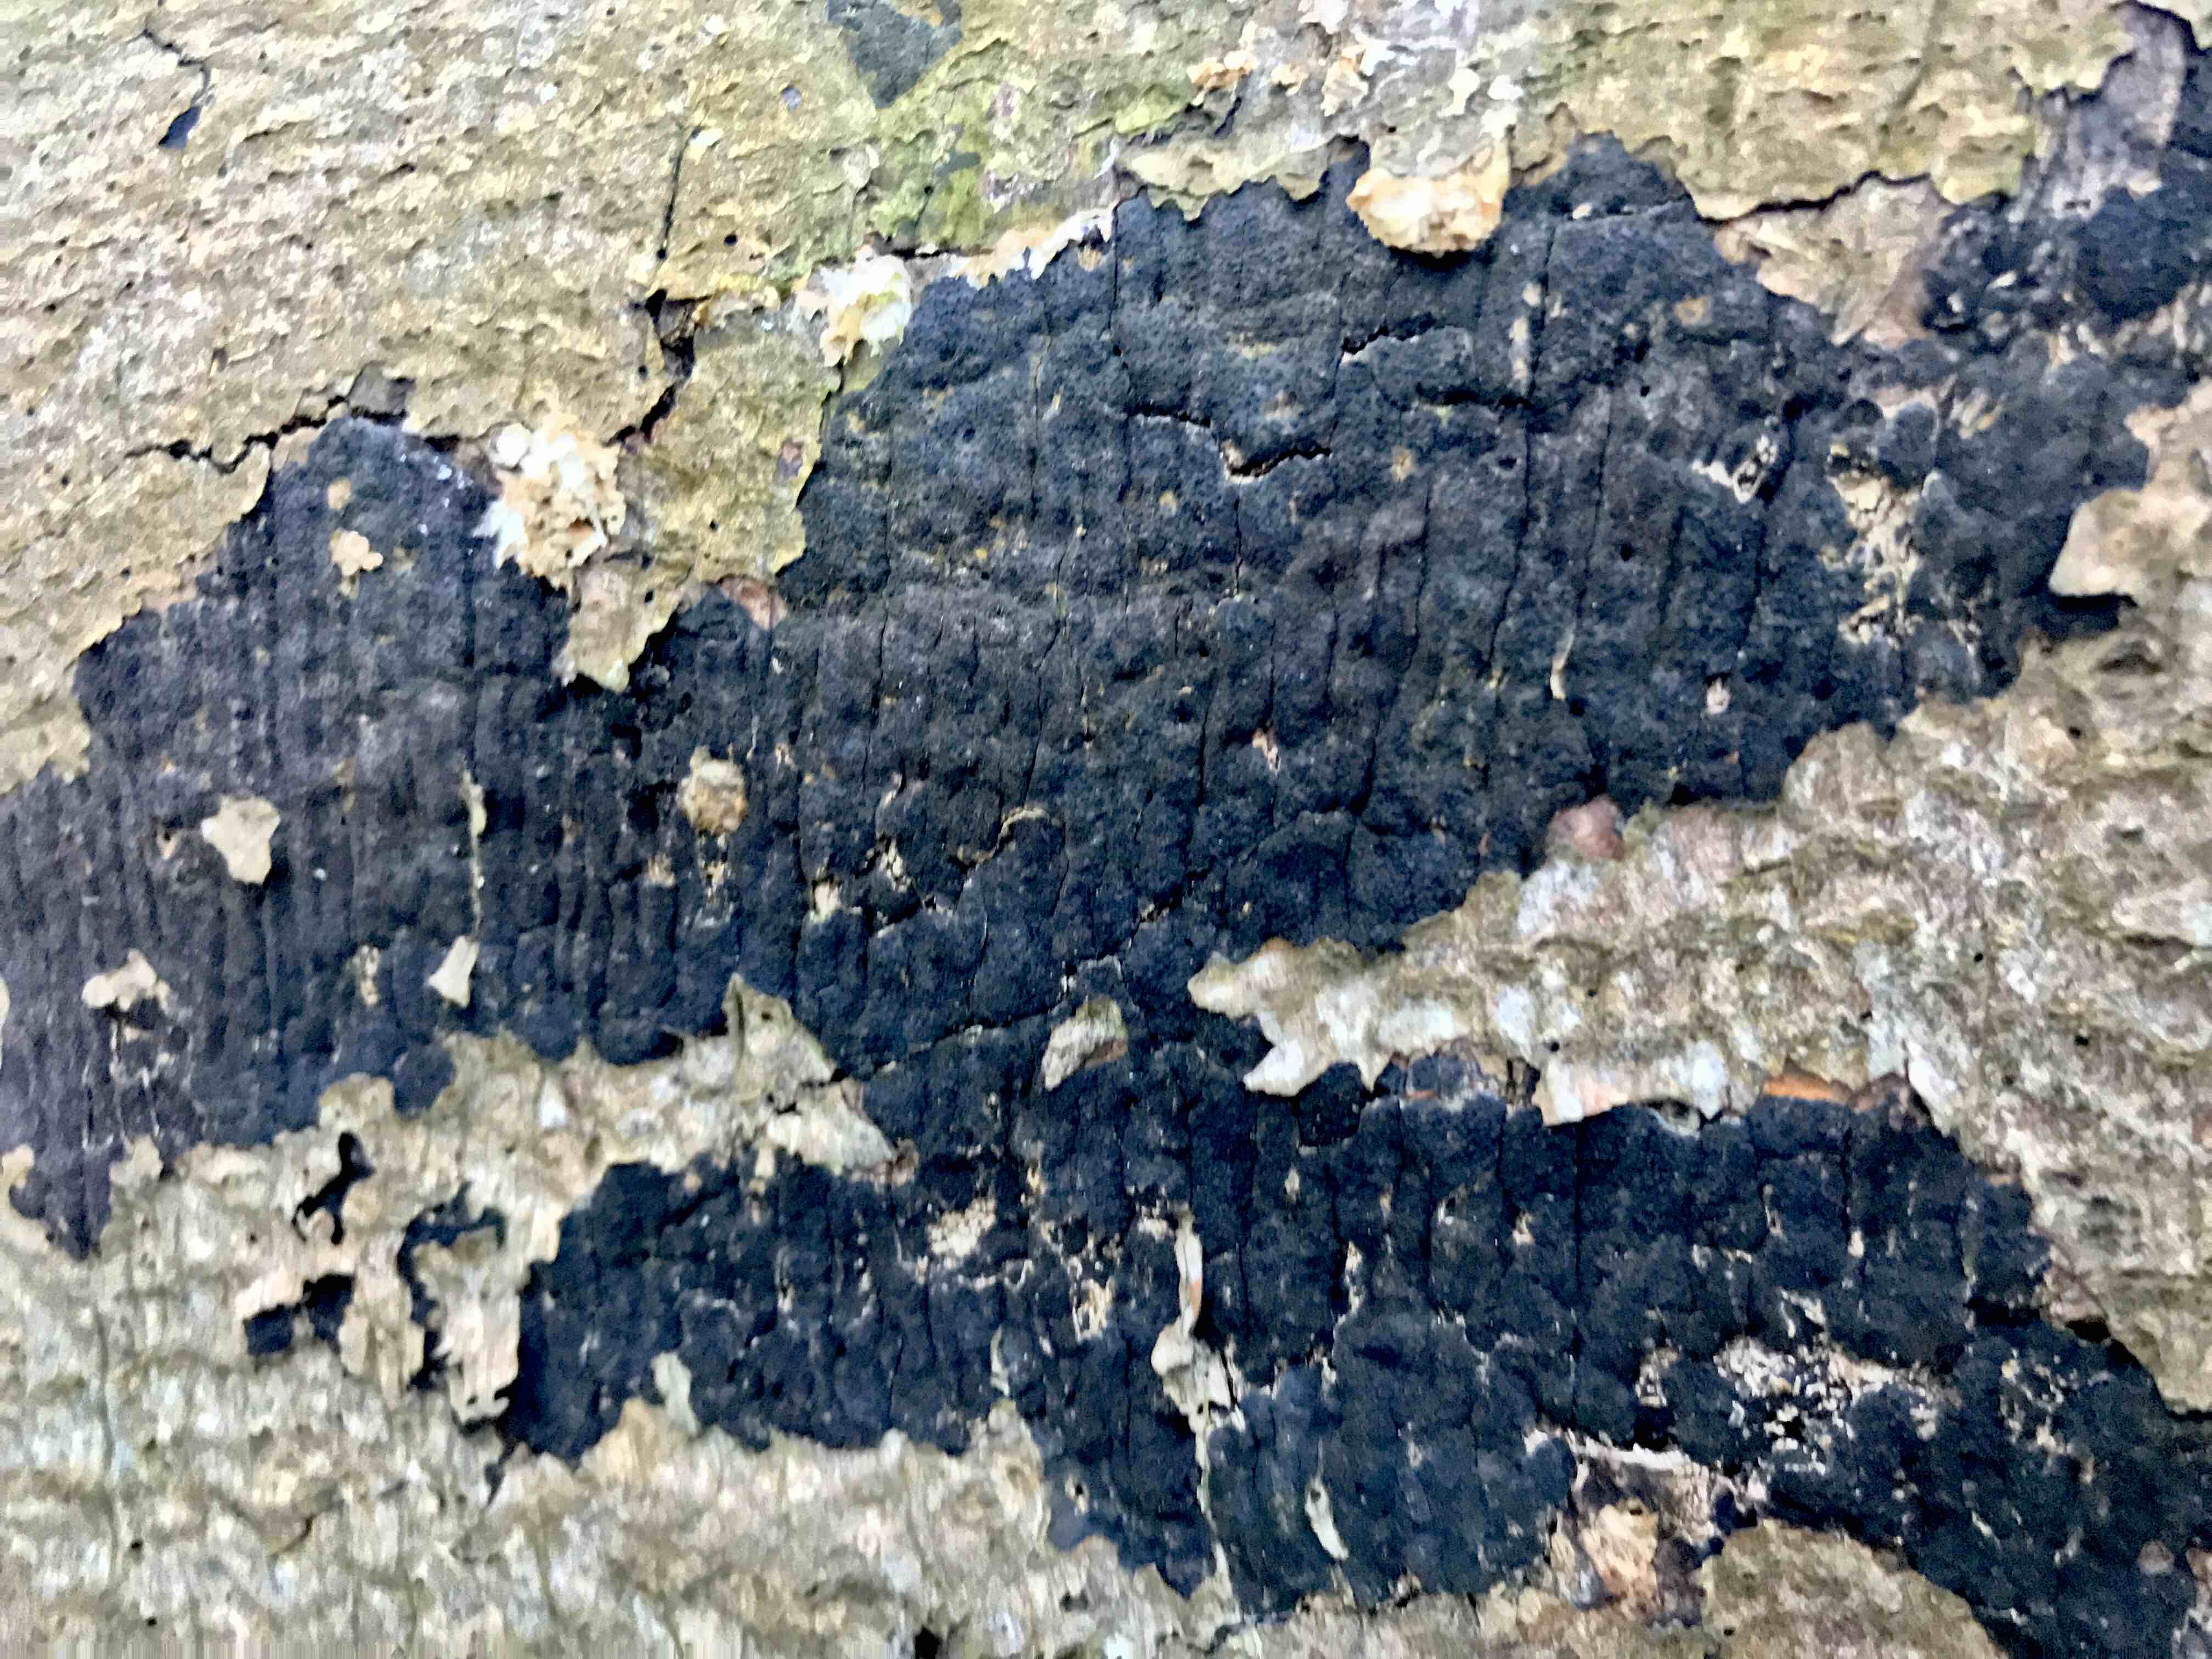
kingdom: Fungi
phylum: Ascomycota
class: Sordariomycetes
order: Xylariales
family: Diatrypaceae
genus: Eutypa
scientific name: Eutypa spinosa
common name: grov kulskorpe
